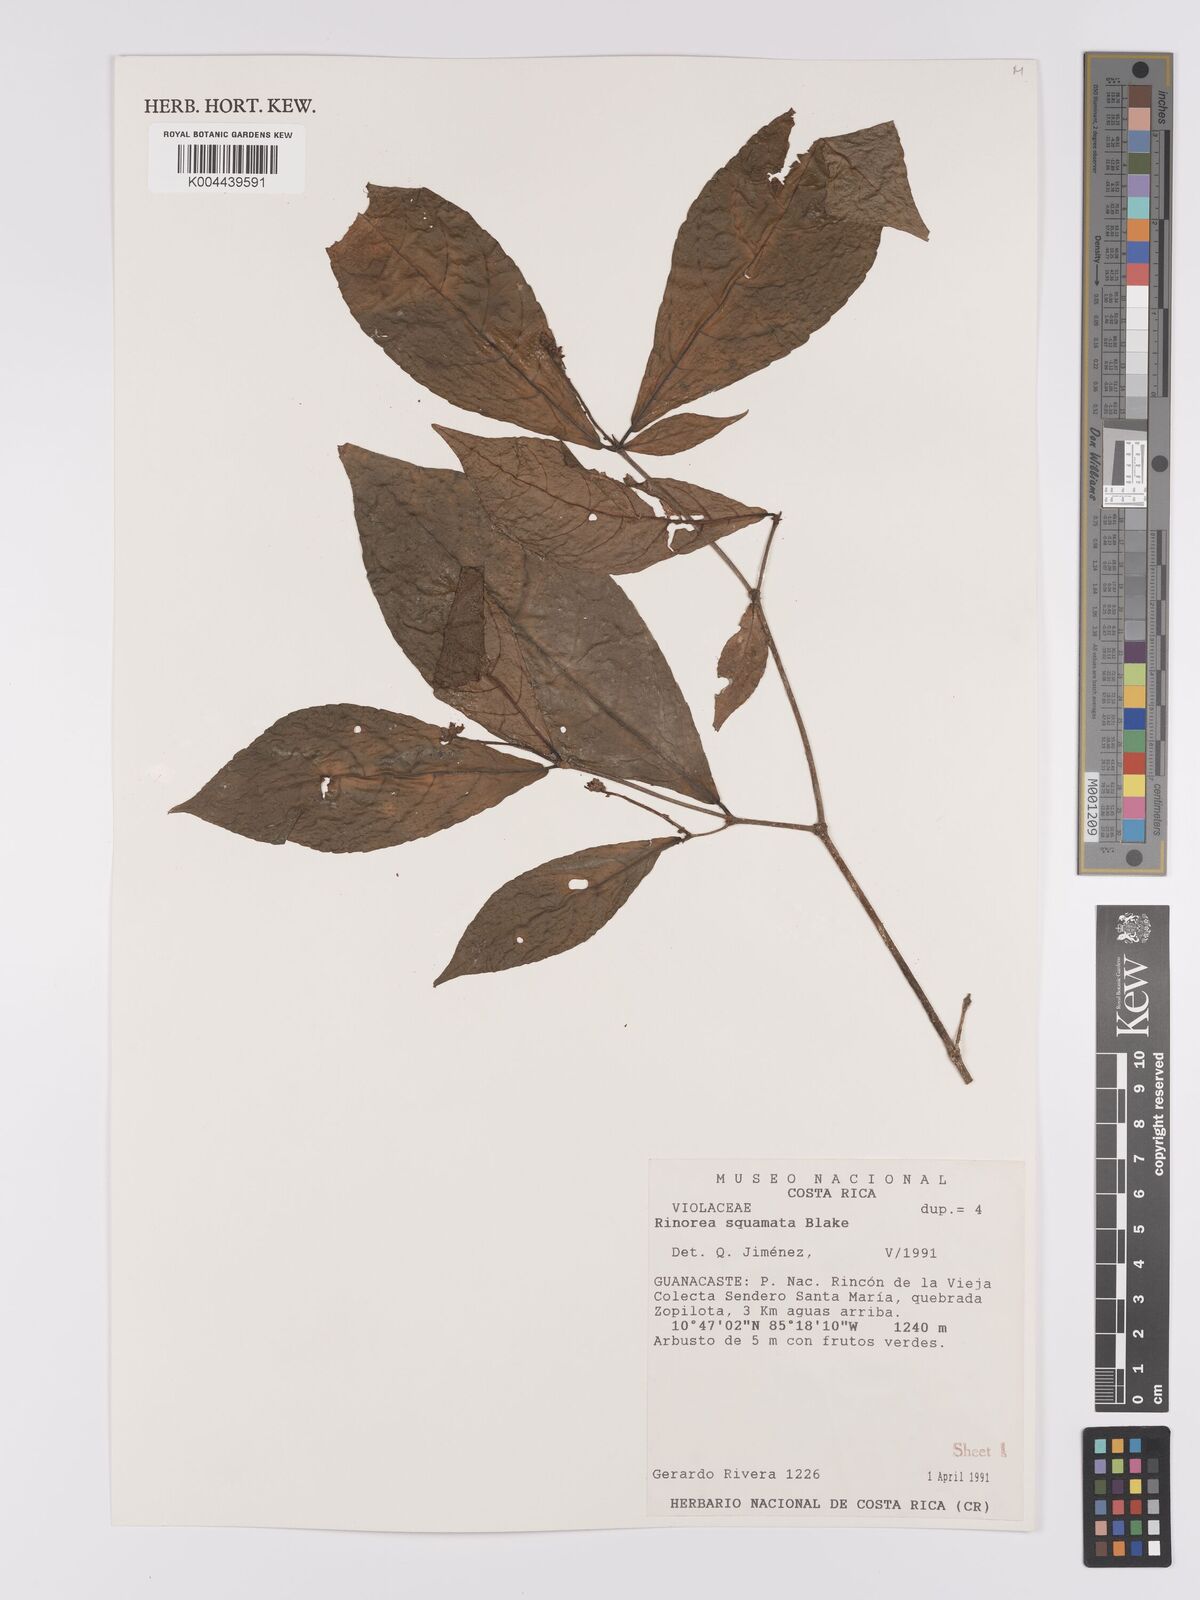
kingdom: Plantae
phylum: Tracheophyta
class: Magnoliopsida
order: Malpighiales
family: Violaceae
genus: Rinorea
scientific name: Rinorea squamata
